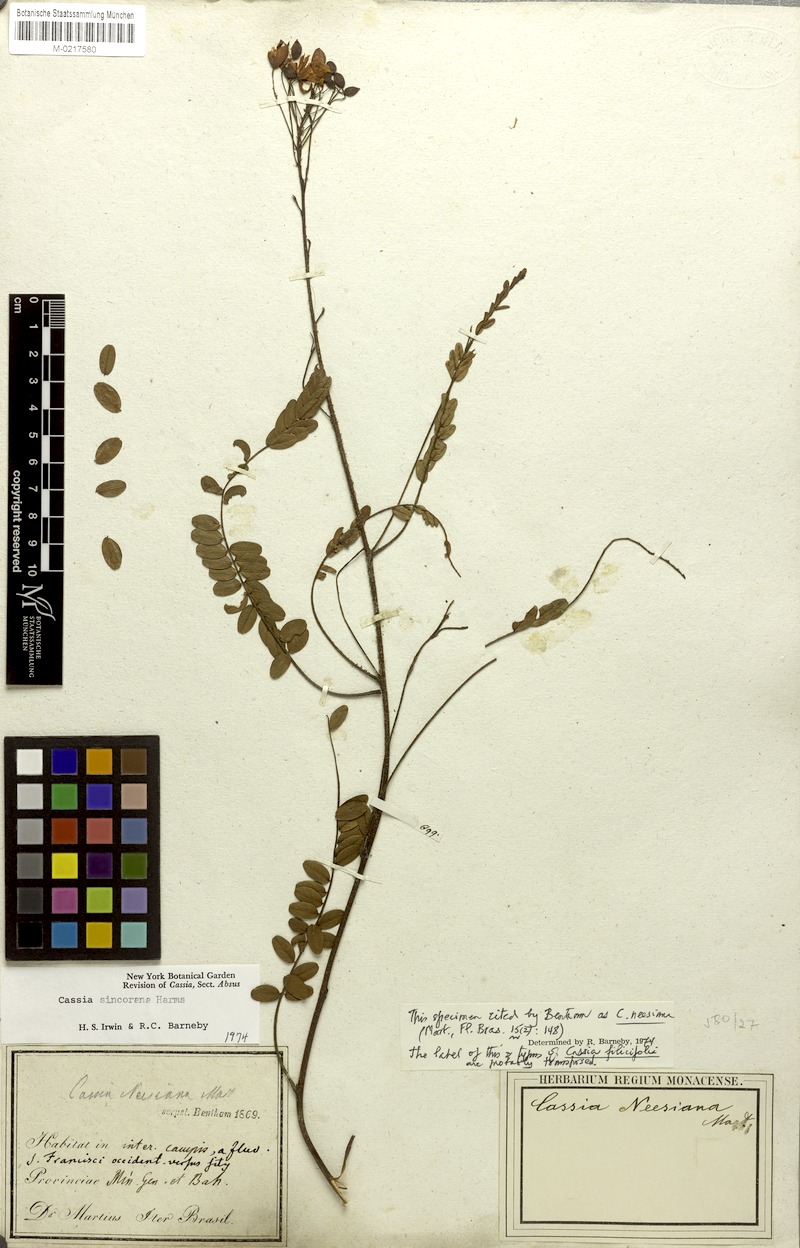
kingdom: Plantae
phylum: Tracheophyta
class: Magnoliopsida
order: Fabales
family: Fabaceae
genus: Chamaecrista
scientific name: Chamaecrista sincorana
